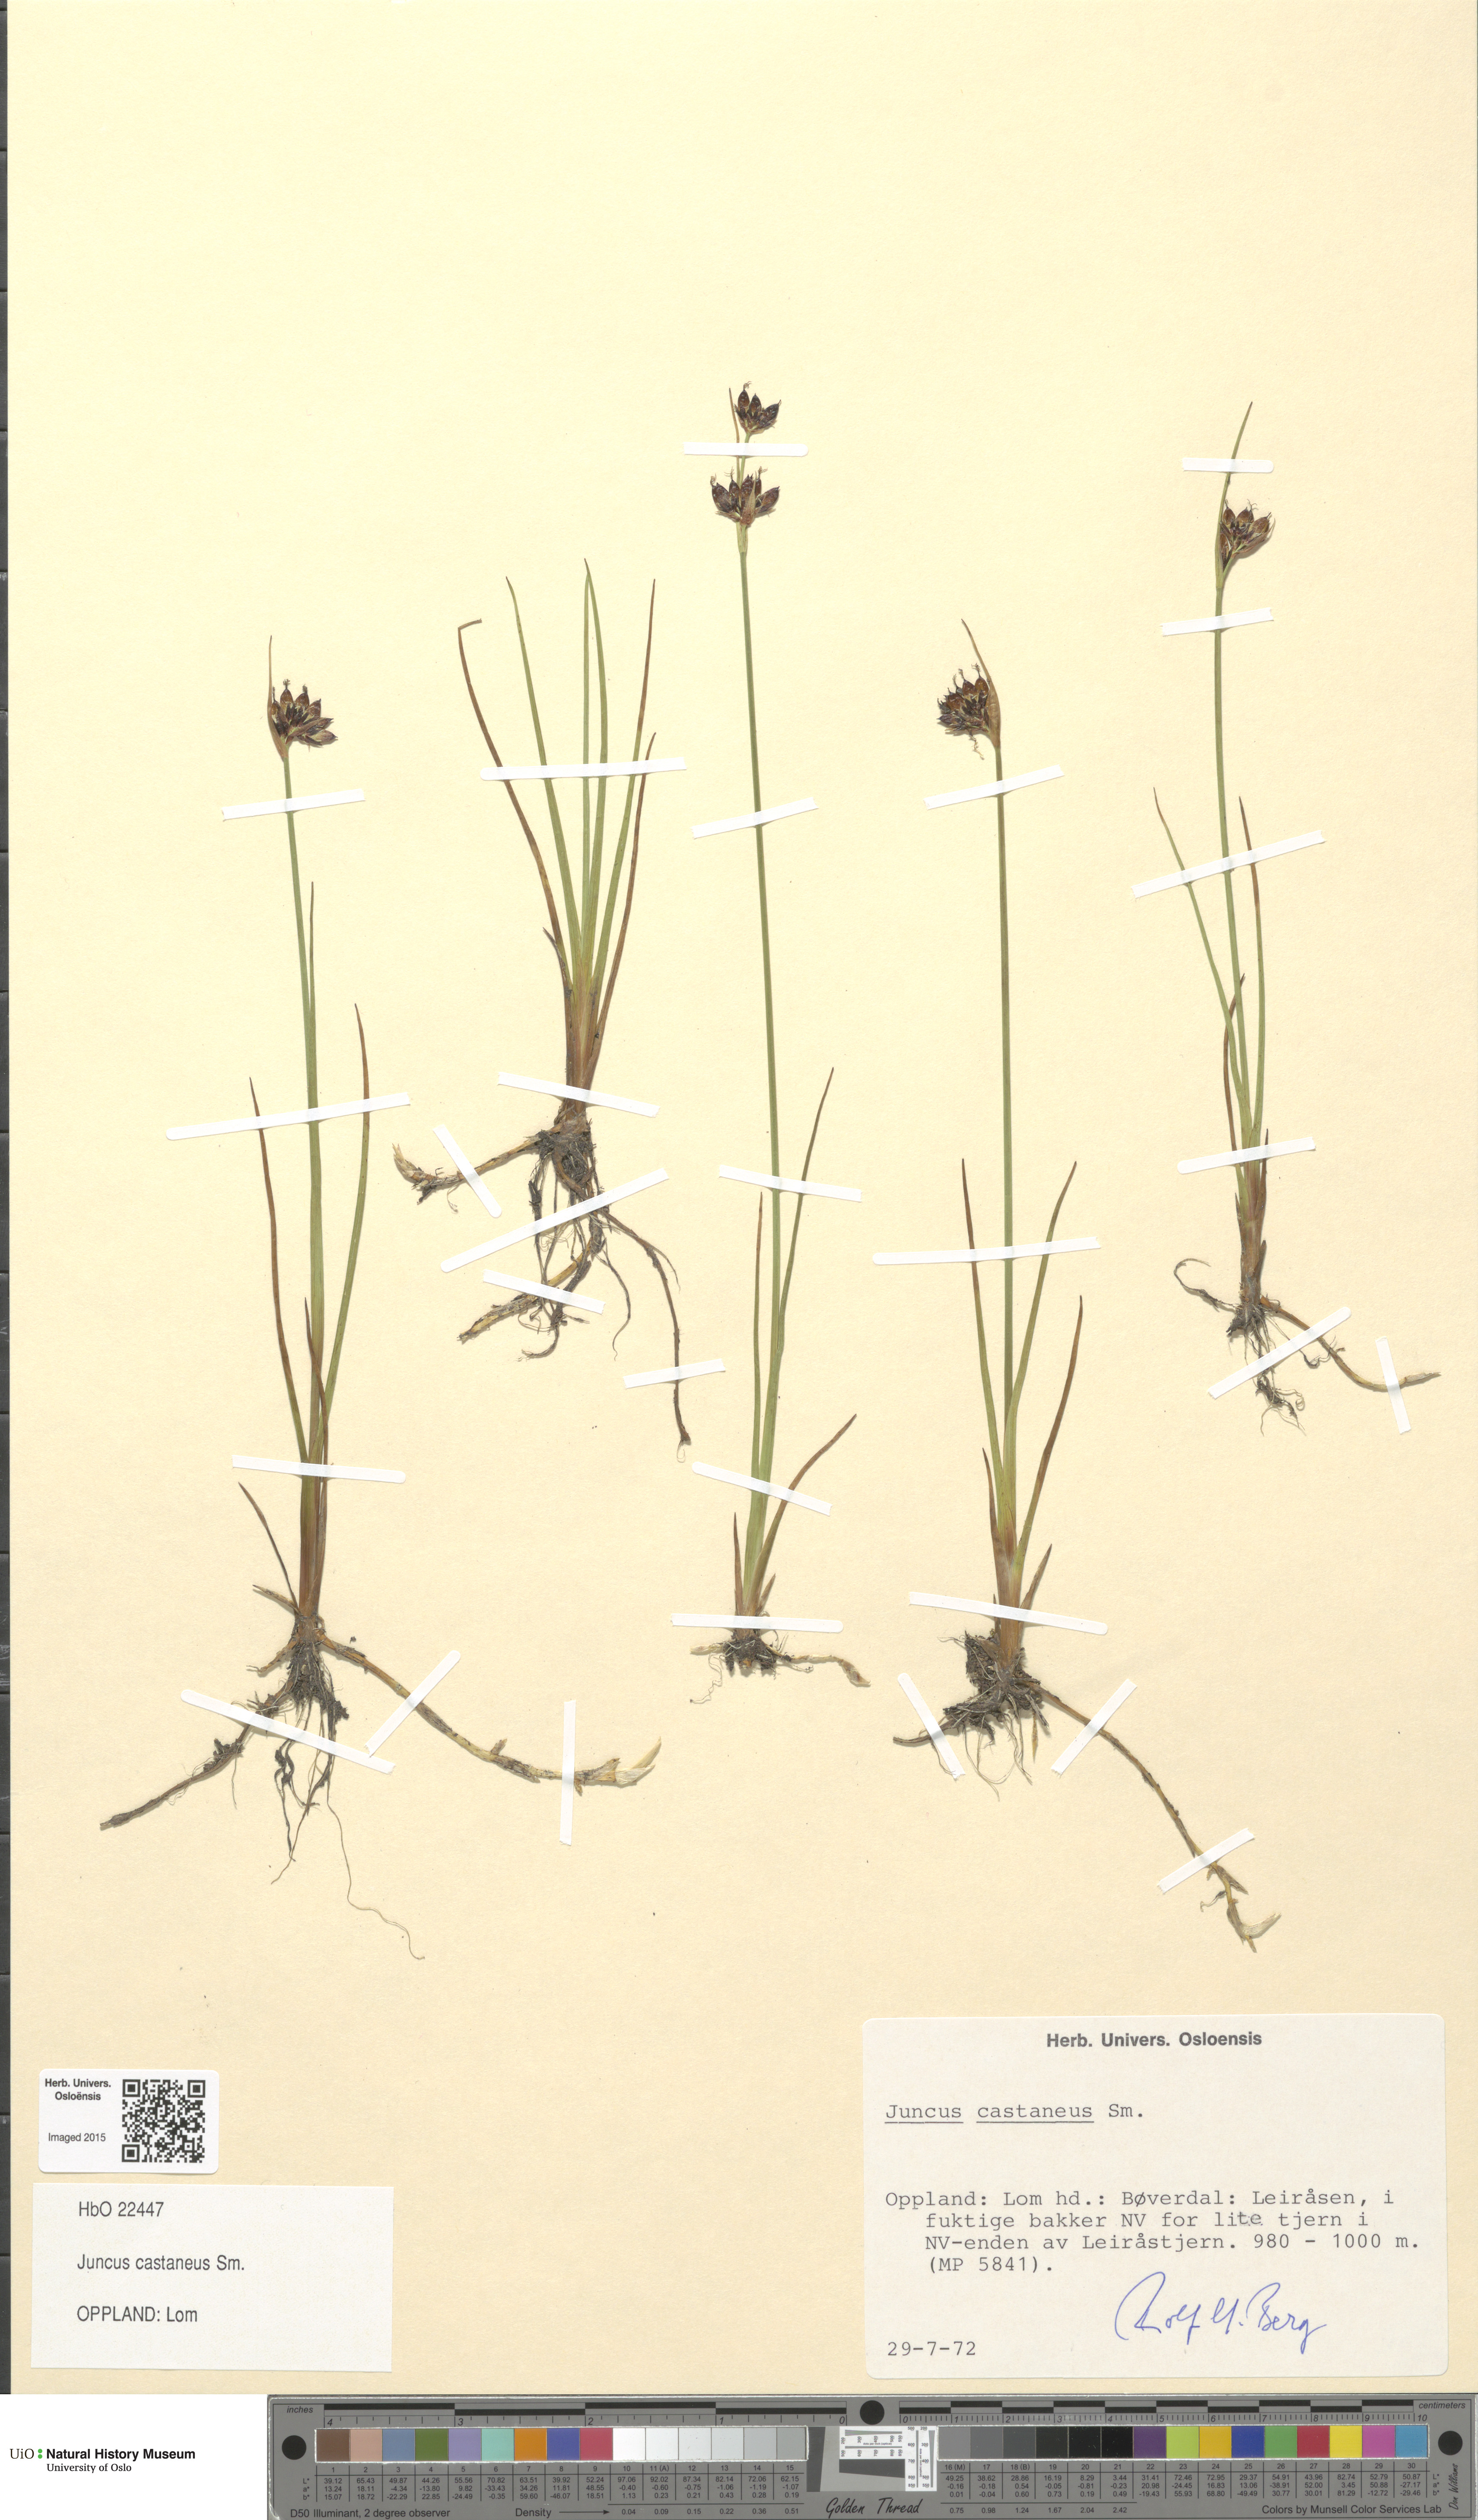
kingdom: Plantae
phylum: Tracheophyta
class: Liliopsida
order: Poales
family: Juncaceae
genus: Juncus
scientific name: Juncus castaneus
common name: Chestnut rush
